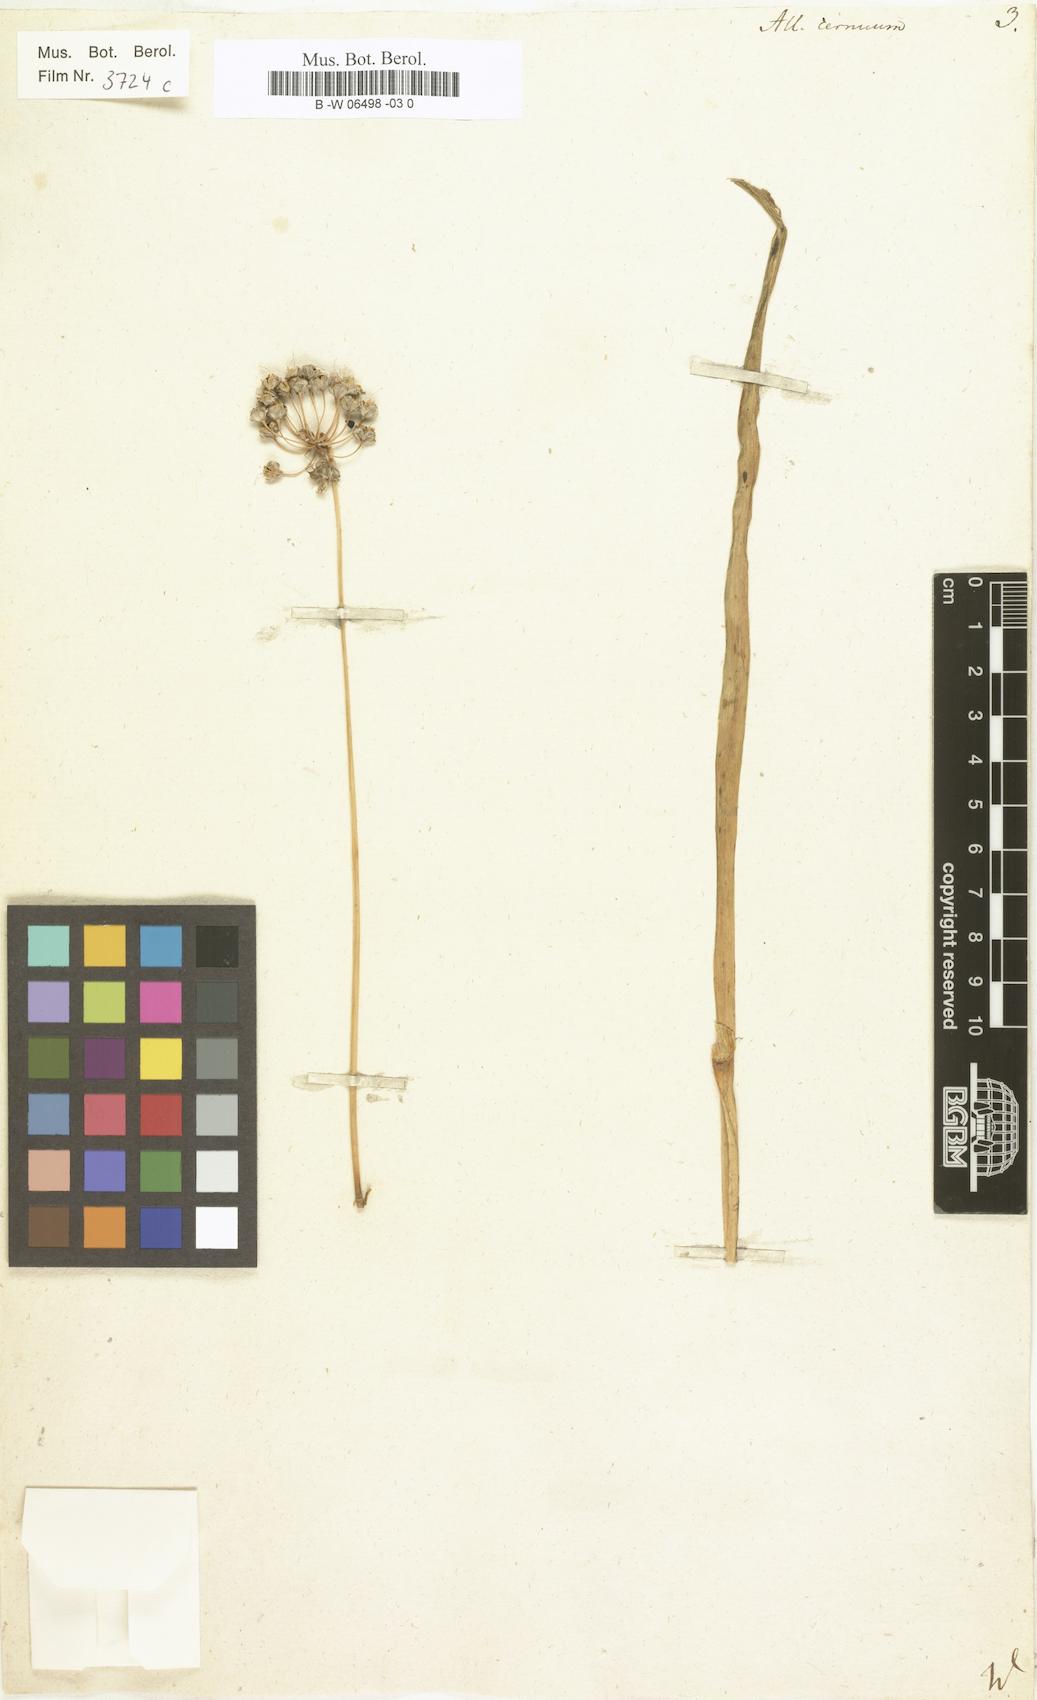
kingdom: Plantae
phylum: Tracheophyta
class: Liliopsida
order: Asparagales
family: Amaryllidaceae
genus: Allium
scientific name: Allium cernuum
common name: Nodding onion
